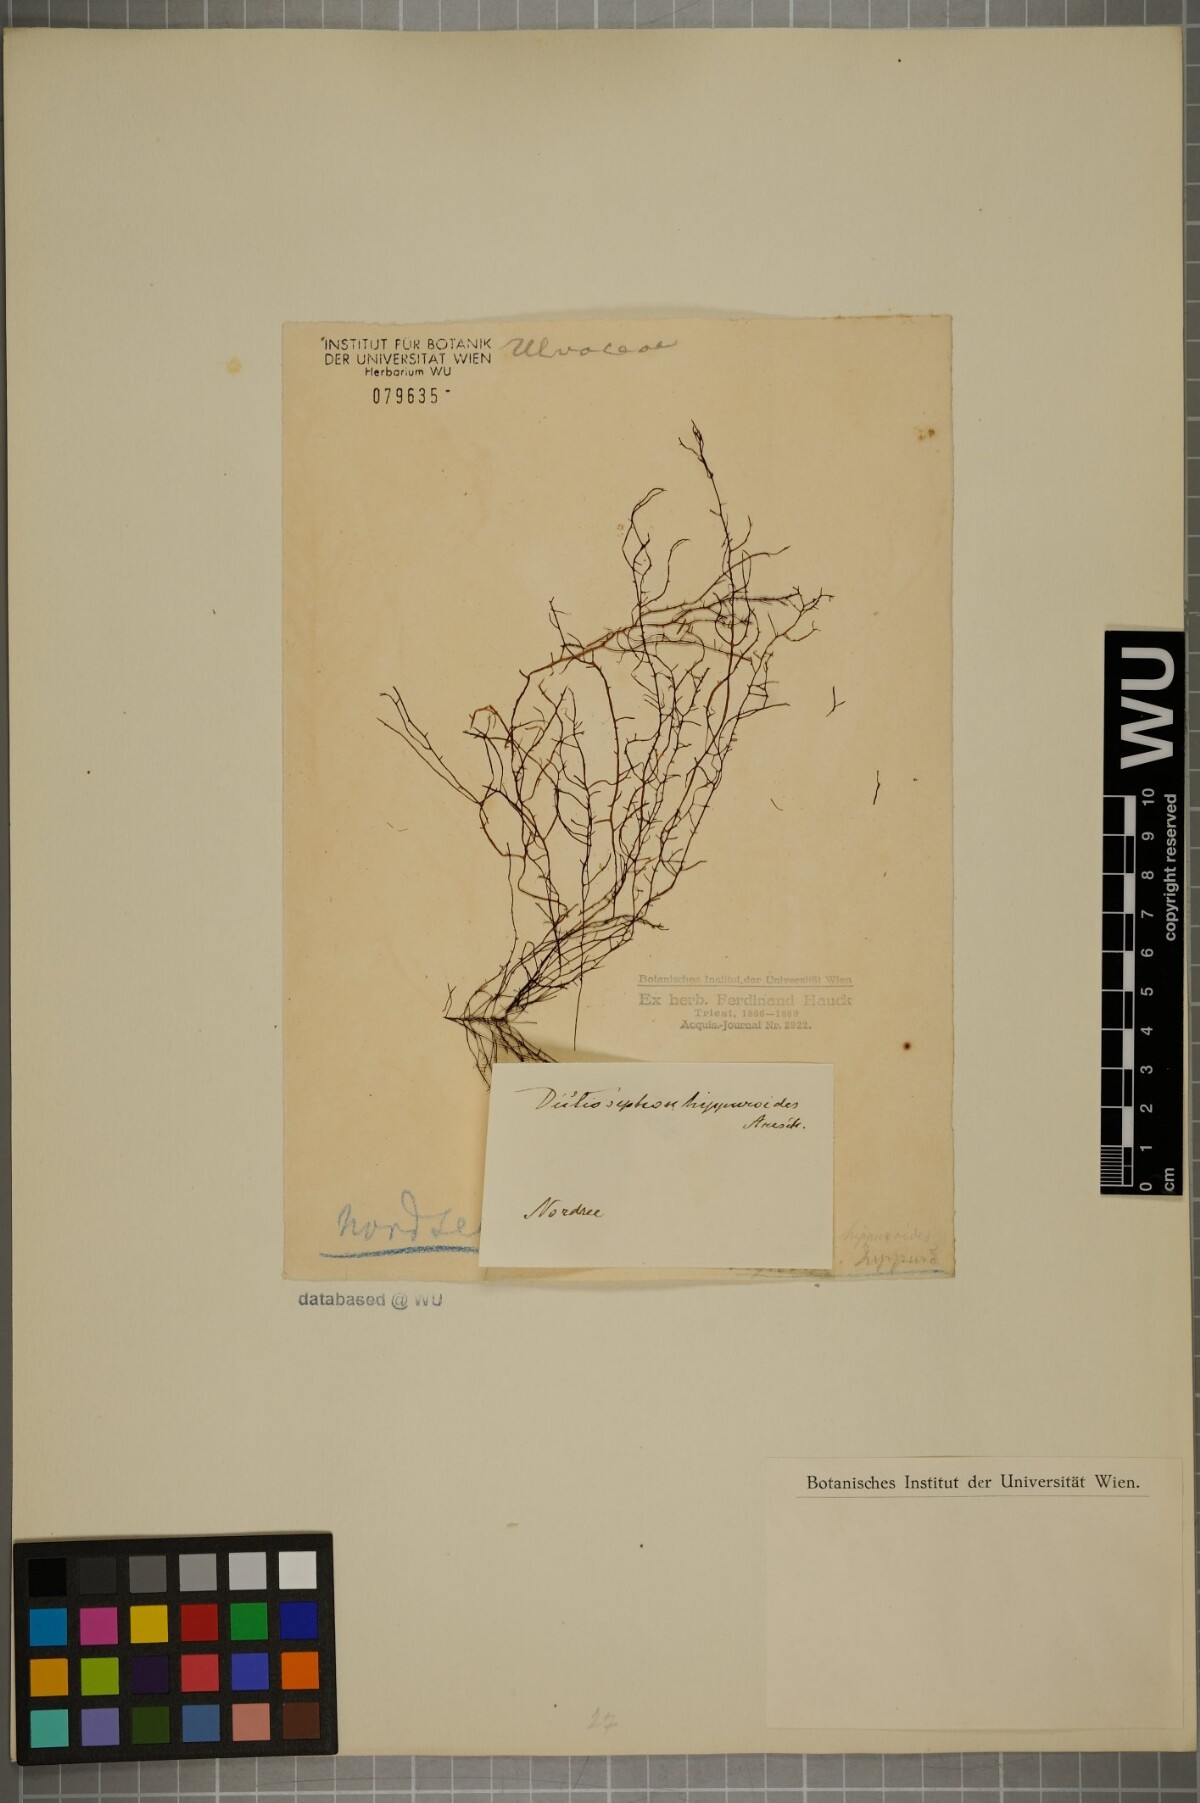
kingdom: Chromista
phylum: Ochrophyta
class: Phaeophyceae
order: Ectocarpales
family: Chordariaceae
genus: Dictyosiphon
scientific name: Dictyosiphon foeniculaceus
